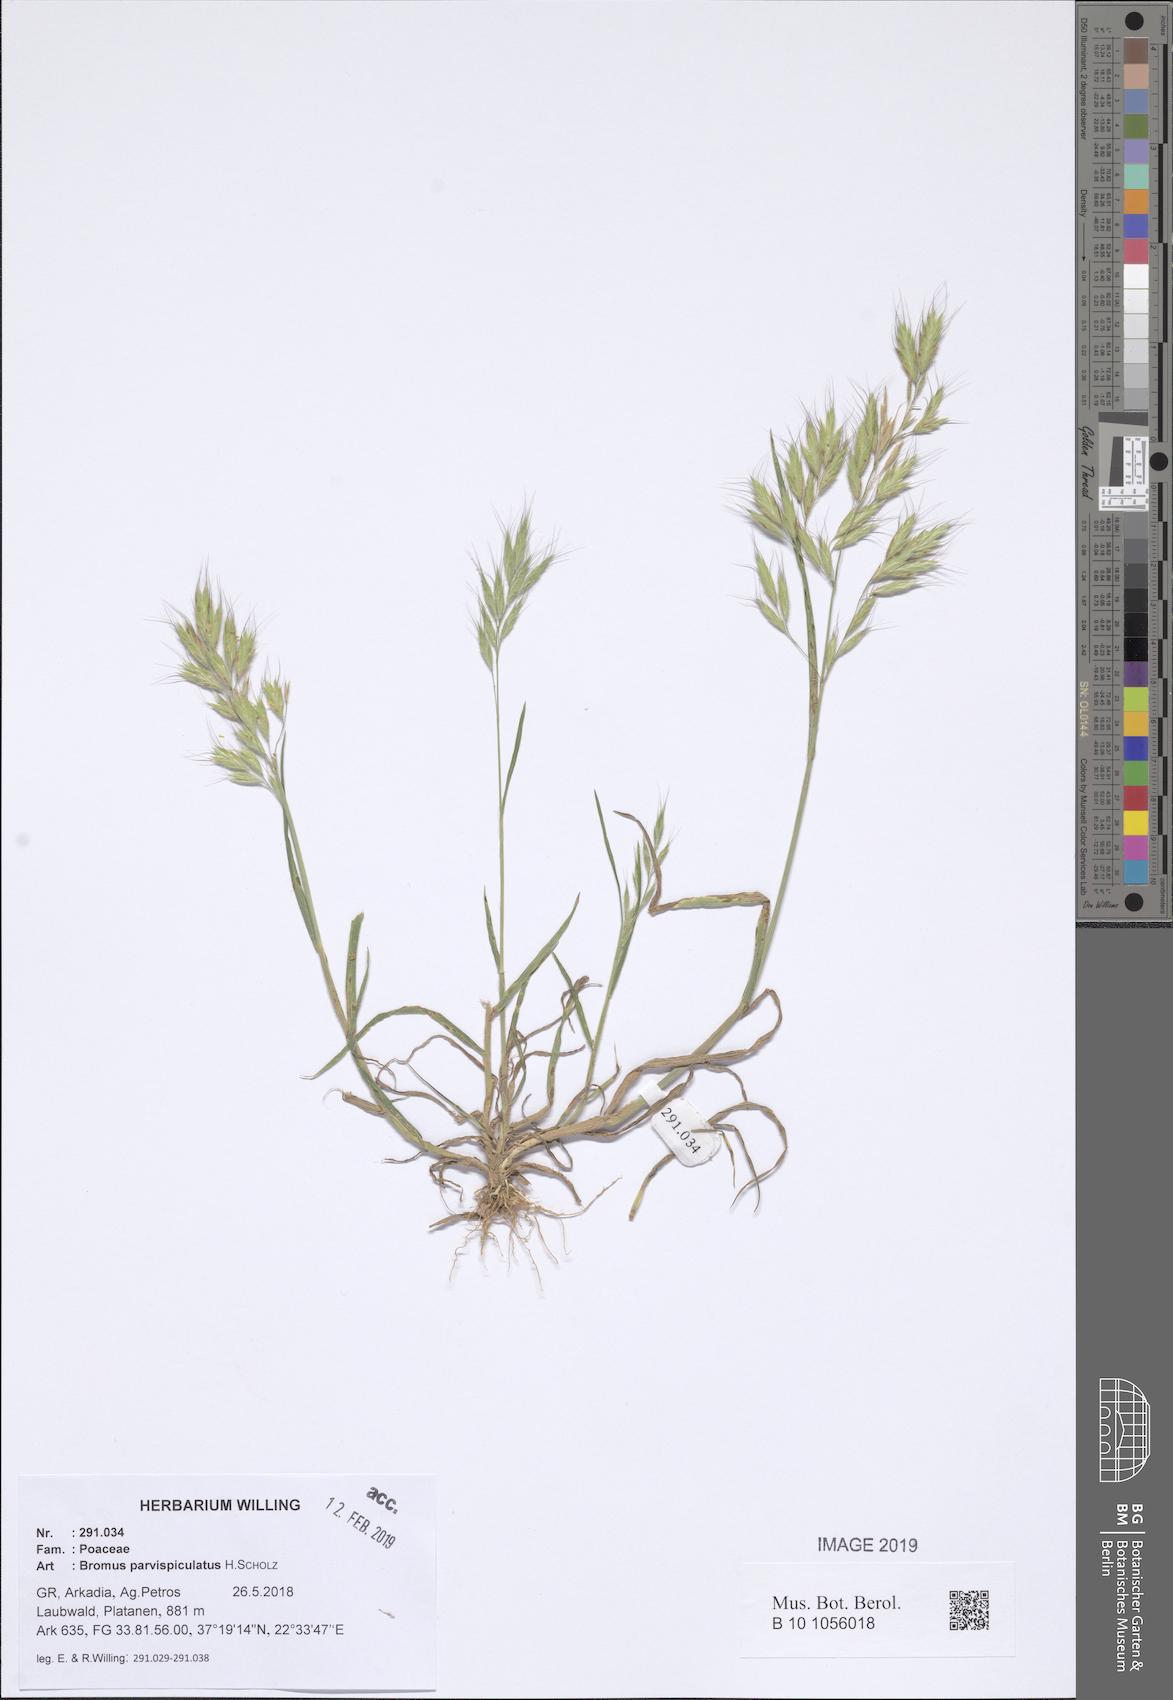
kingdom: Plantae
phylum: Tracheophyta
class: Liliopsida
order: Poales
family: Poaceae
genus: Bromus
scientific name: Bromus hordeaceus
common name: Soft brome
